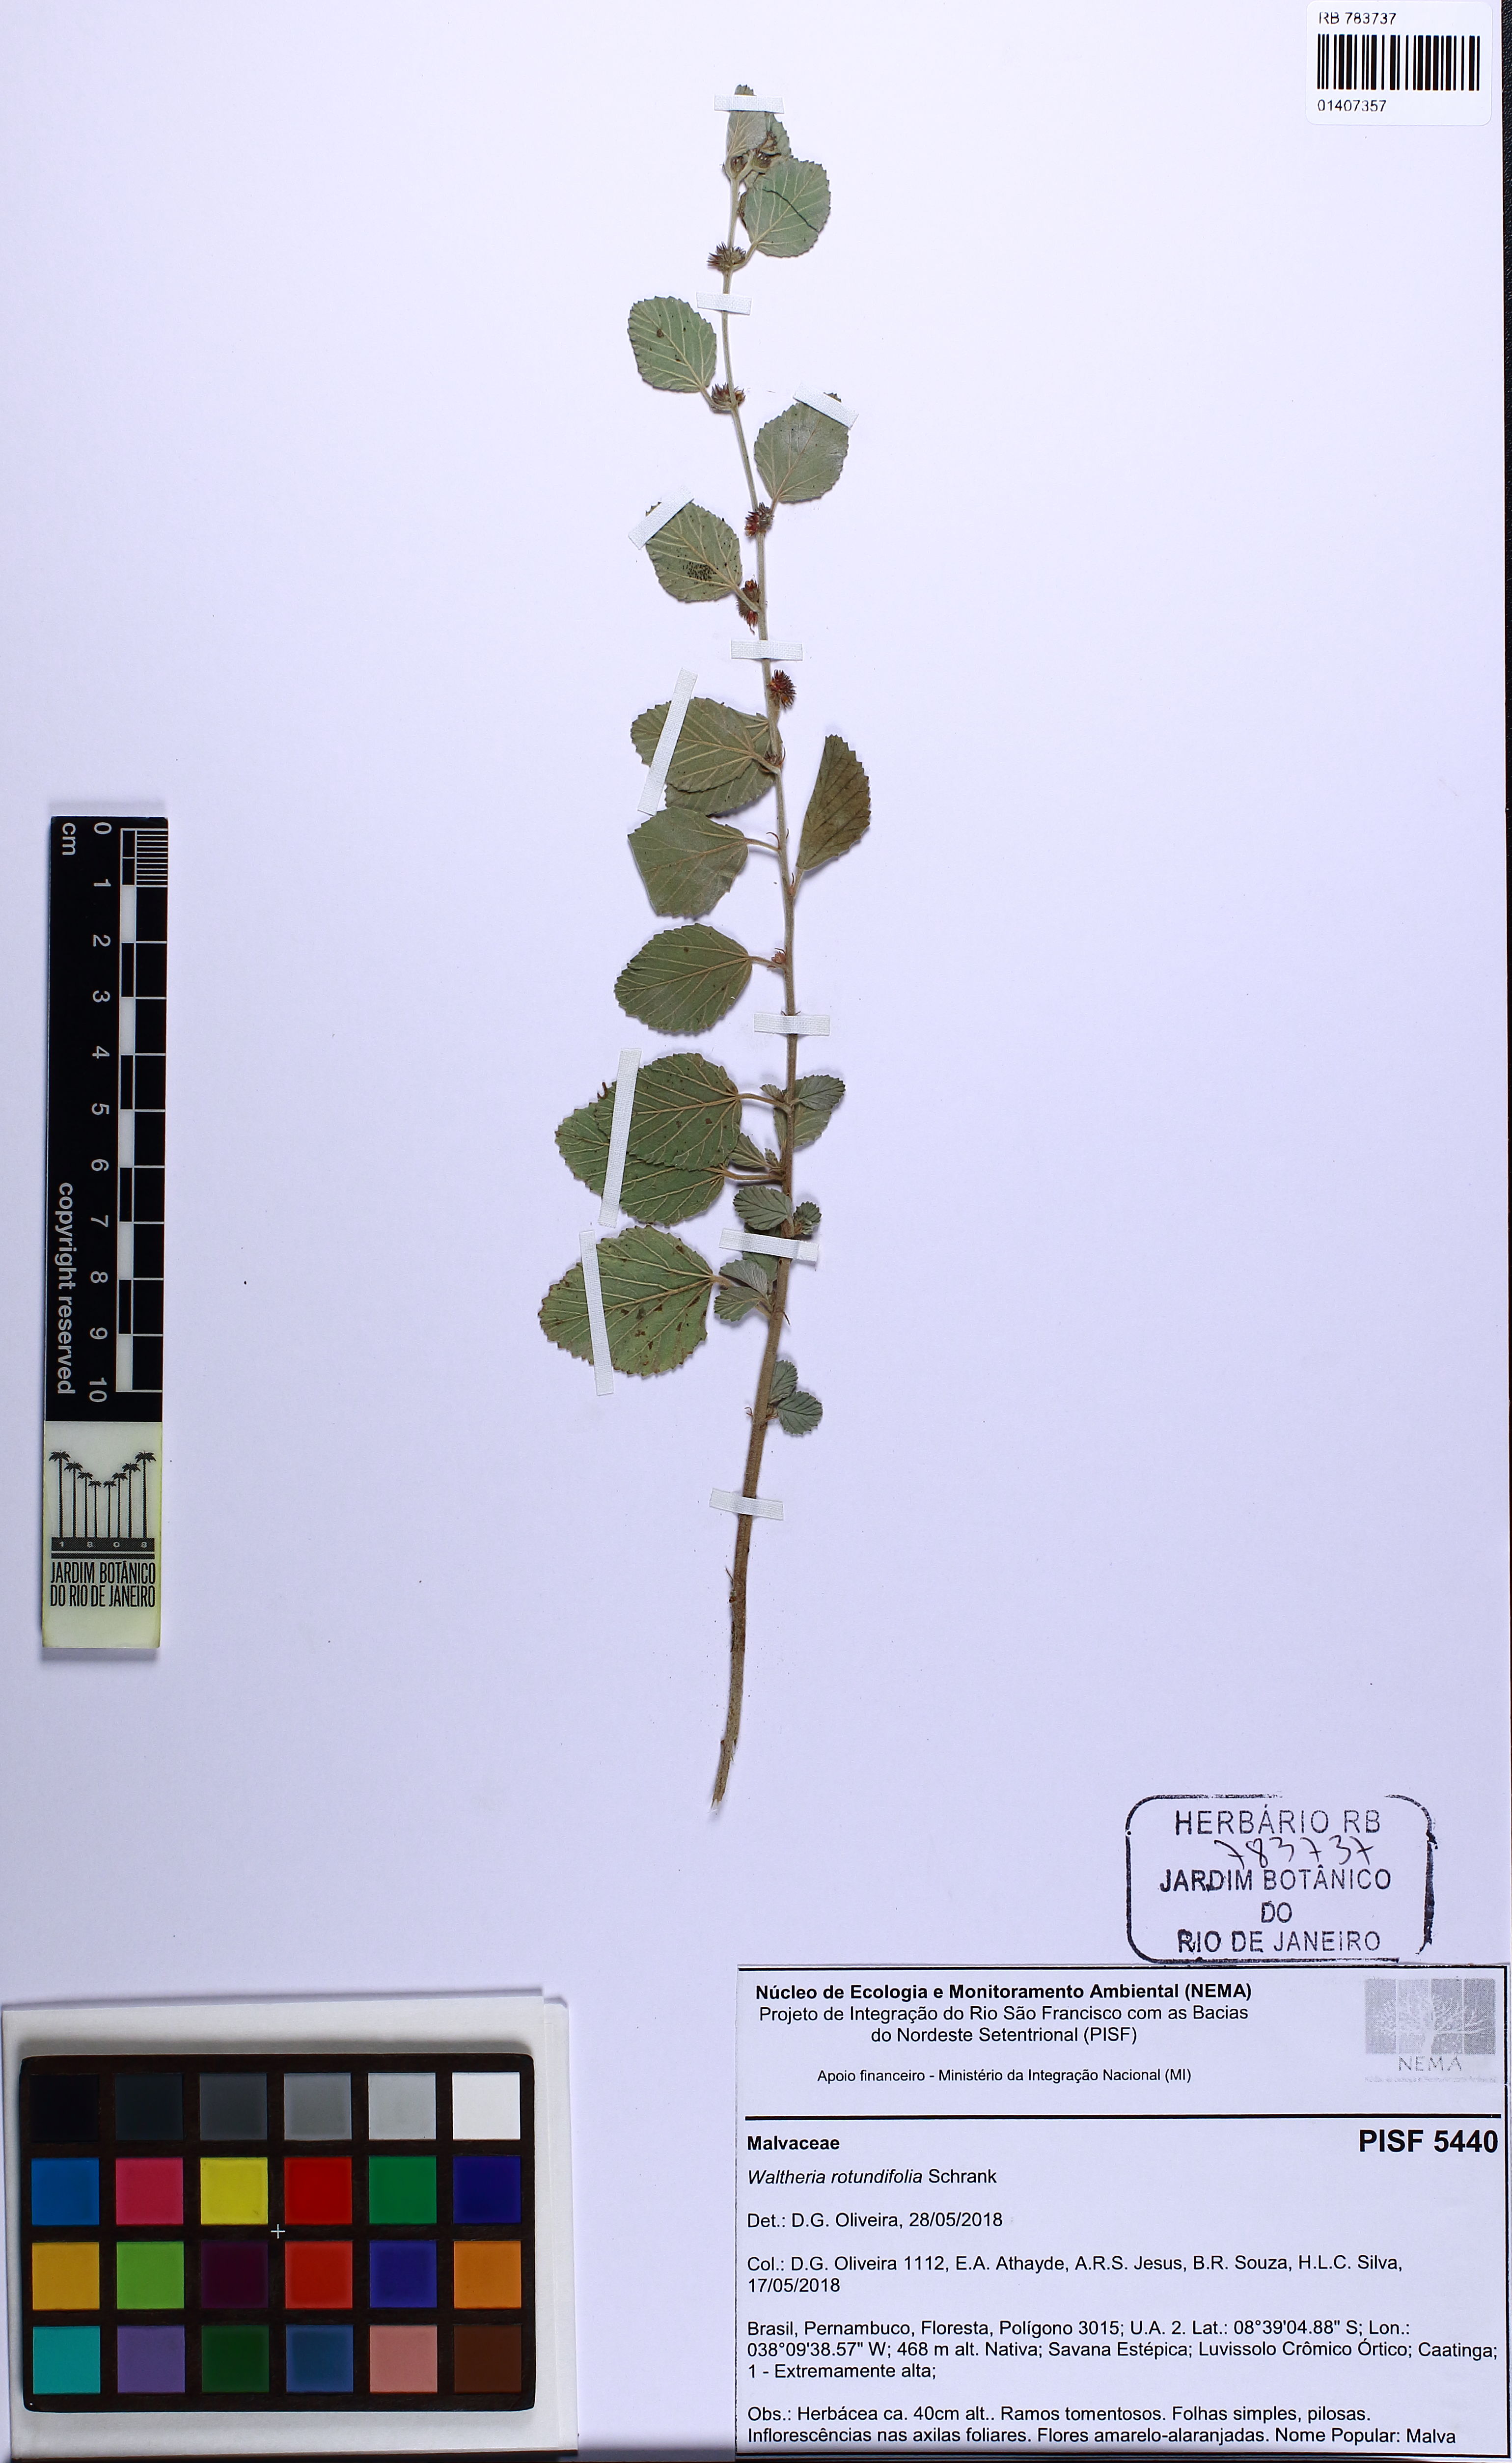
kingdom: Plantae
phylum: Tracheophyta
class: Magnoliopsida
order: Malvales
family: Malvaceae
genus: Waltheria
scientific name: Waltheria rotundifolia
